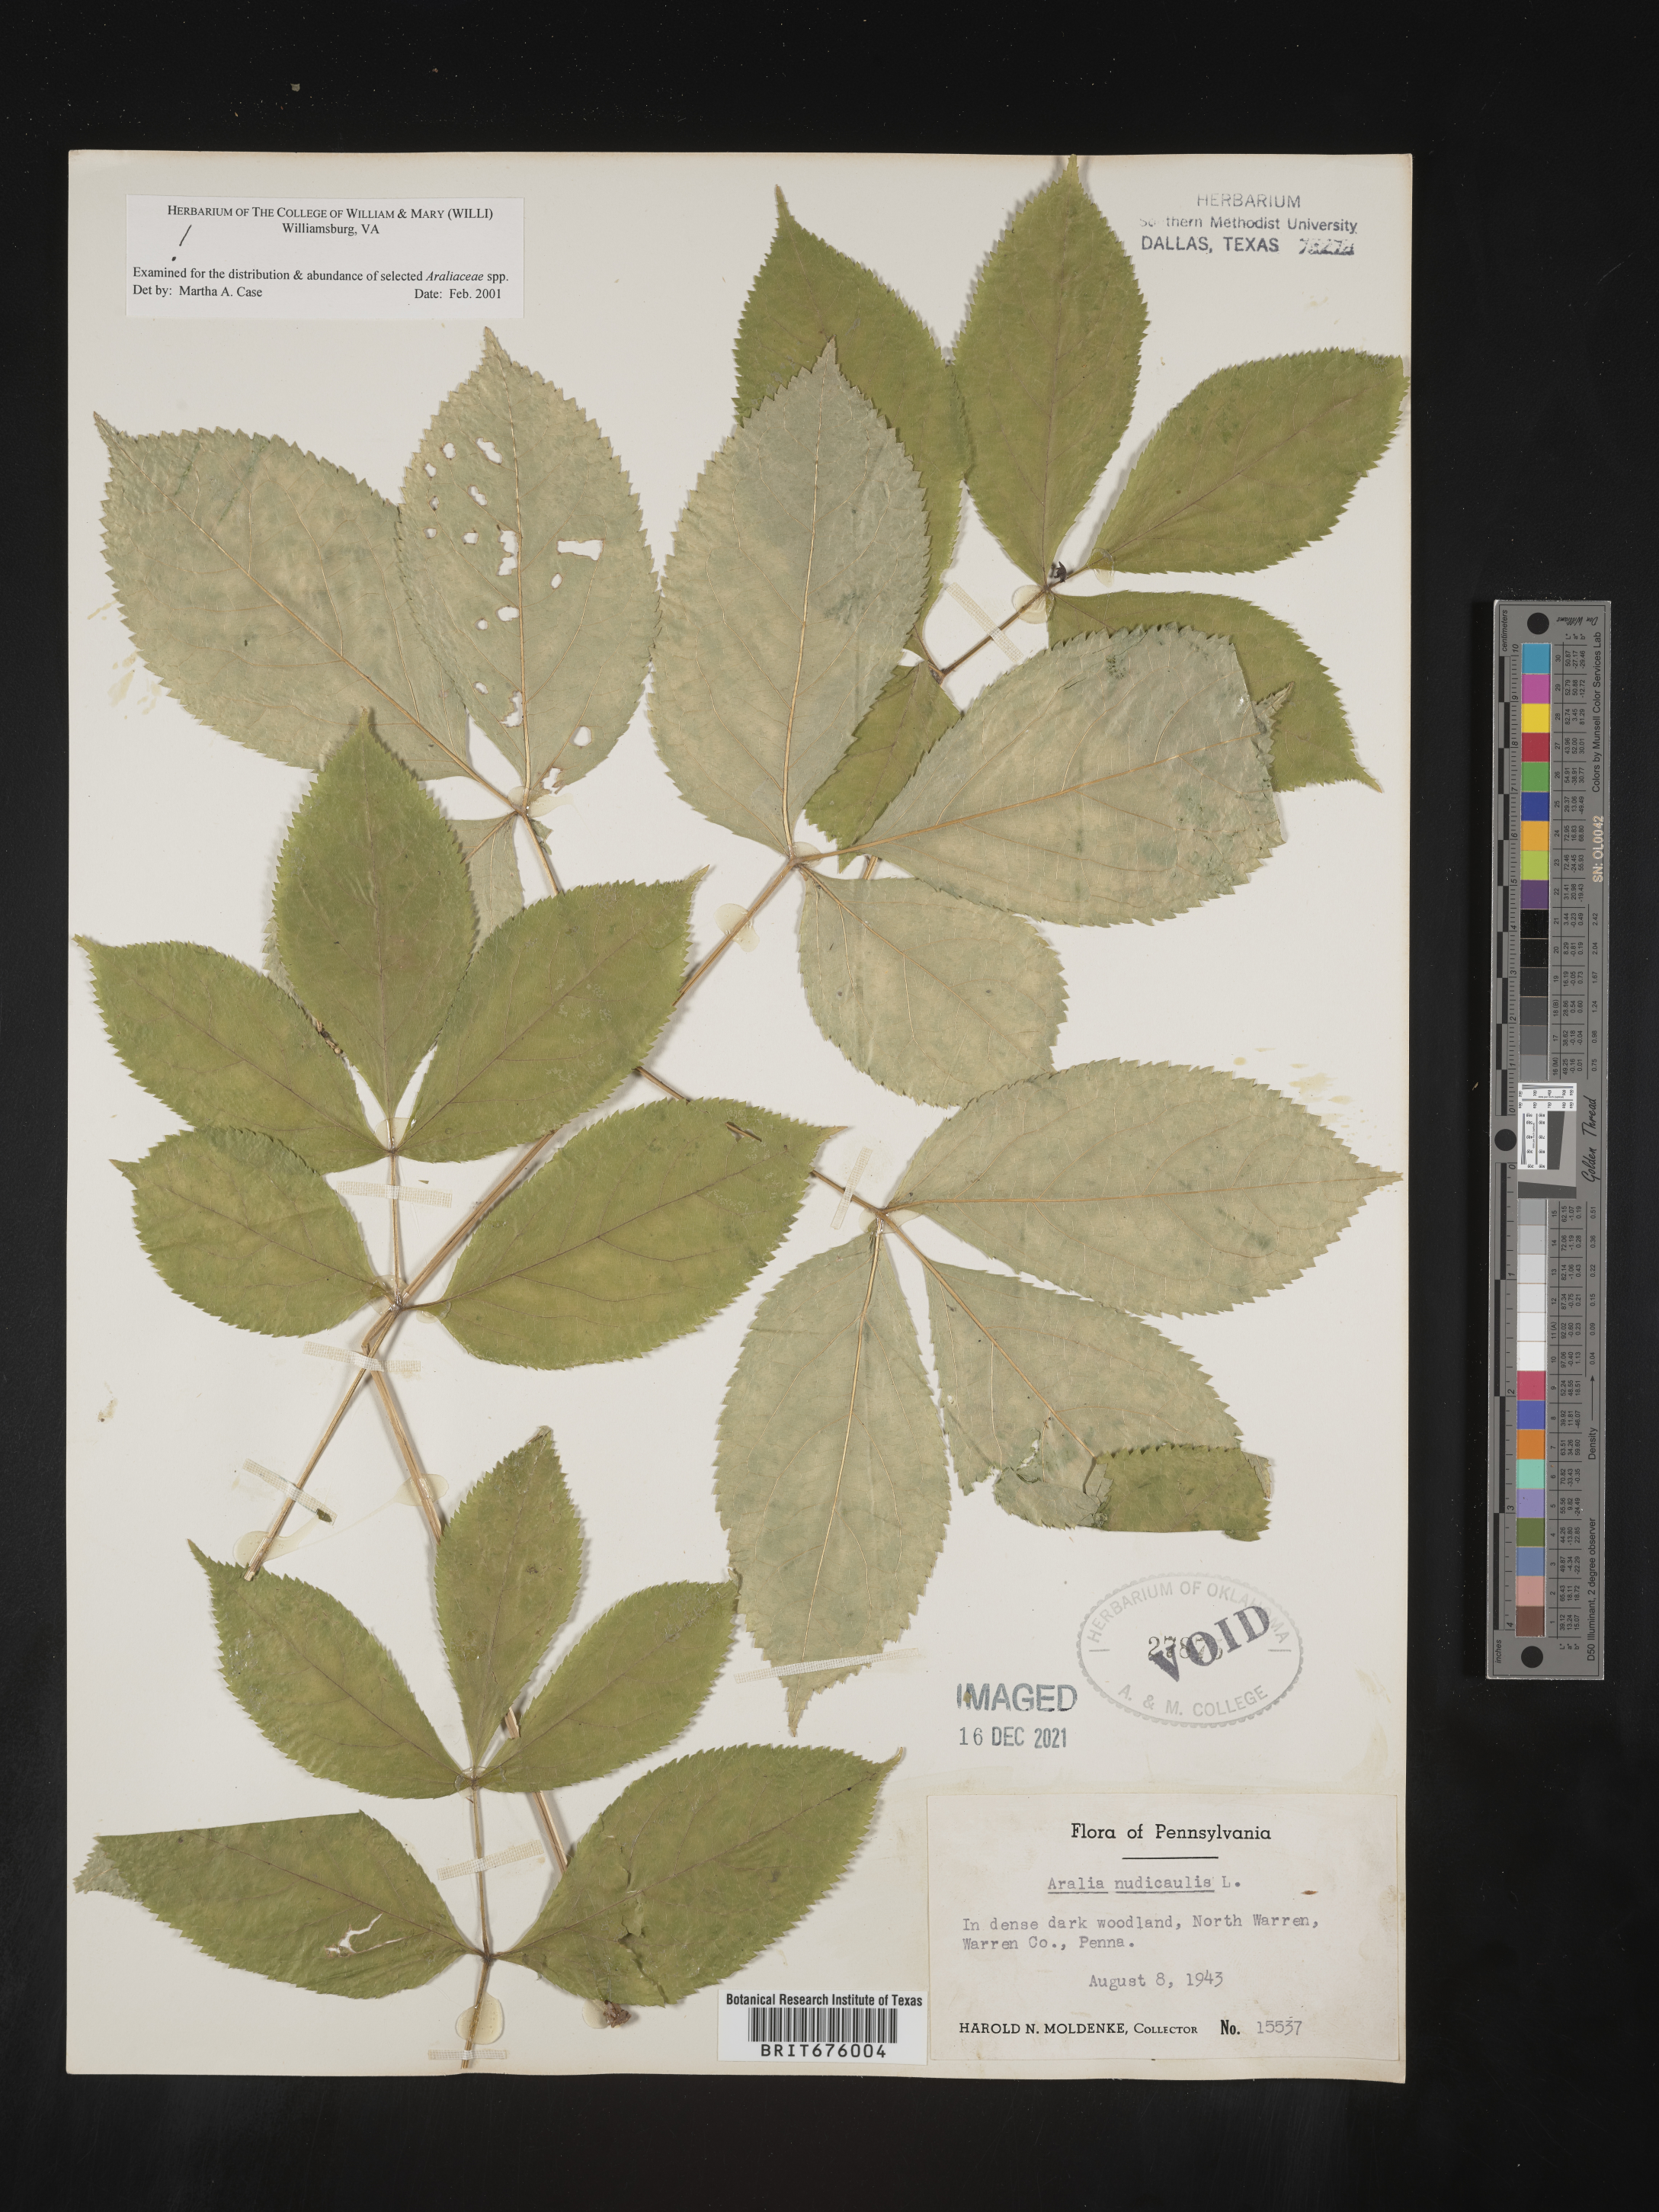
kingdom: Plantae
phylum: Tracheophyta
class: Magnoliopsida
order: Apiales
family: Araliaceae
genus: Aralia
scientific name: Aralia nudicaulis
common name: Wild sarsaparilla
